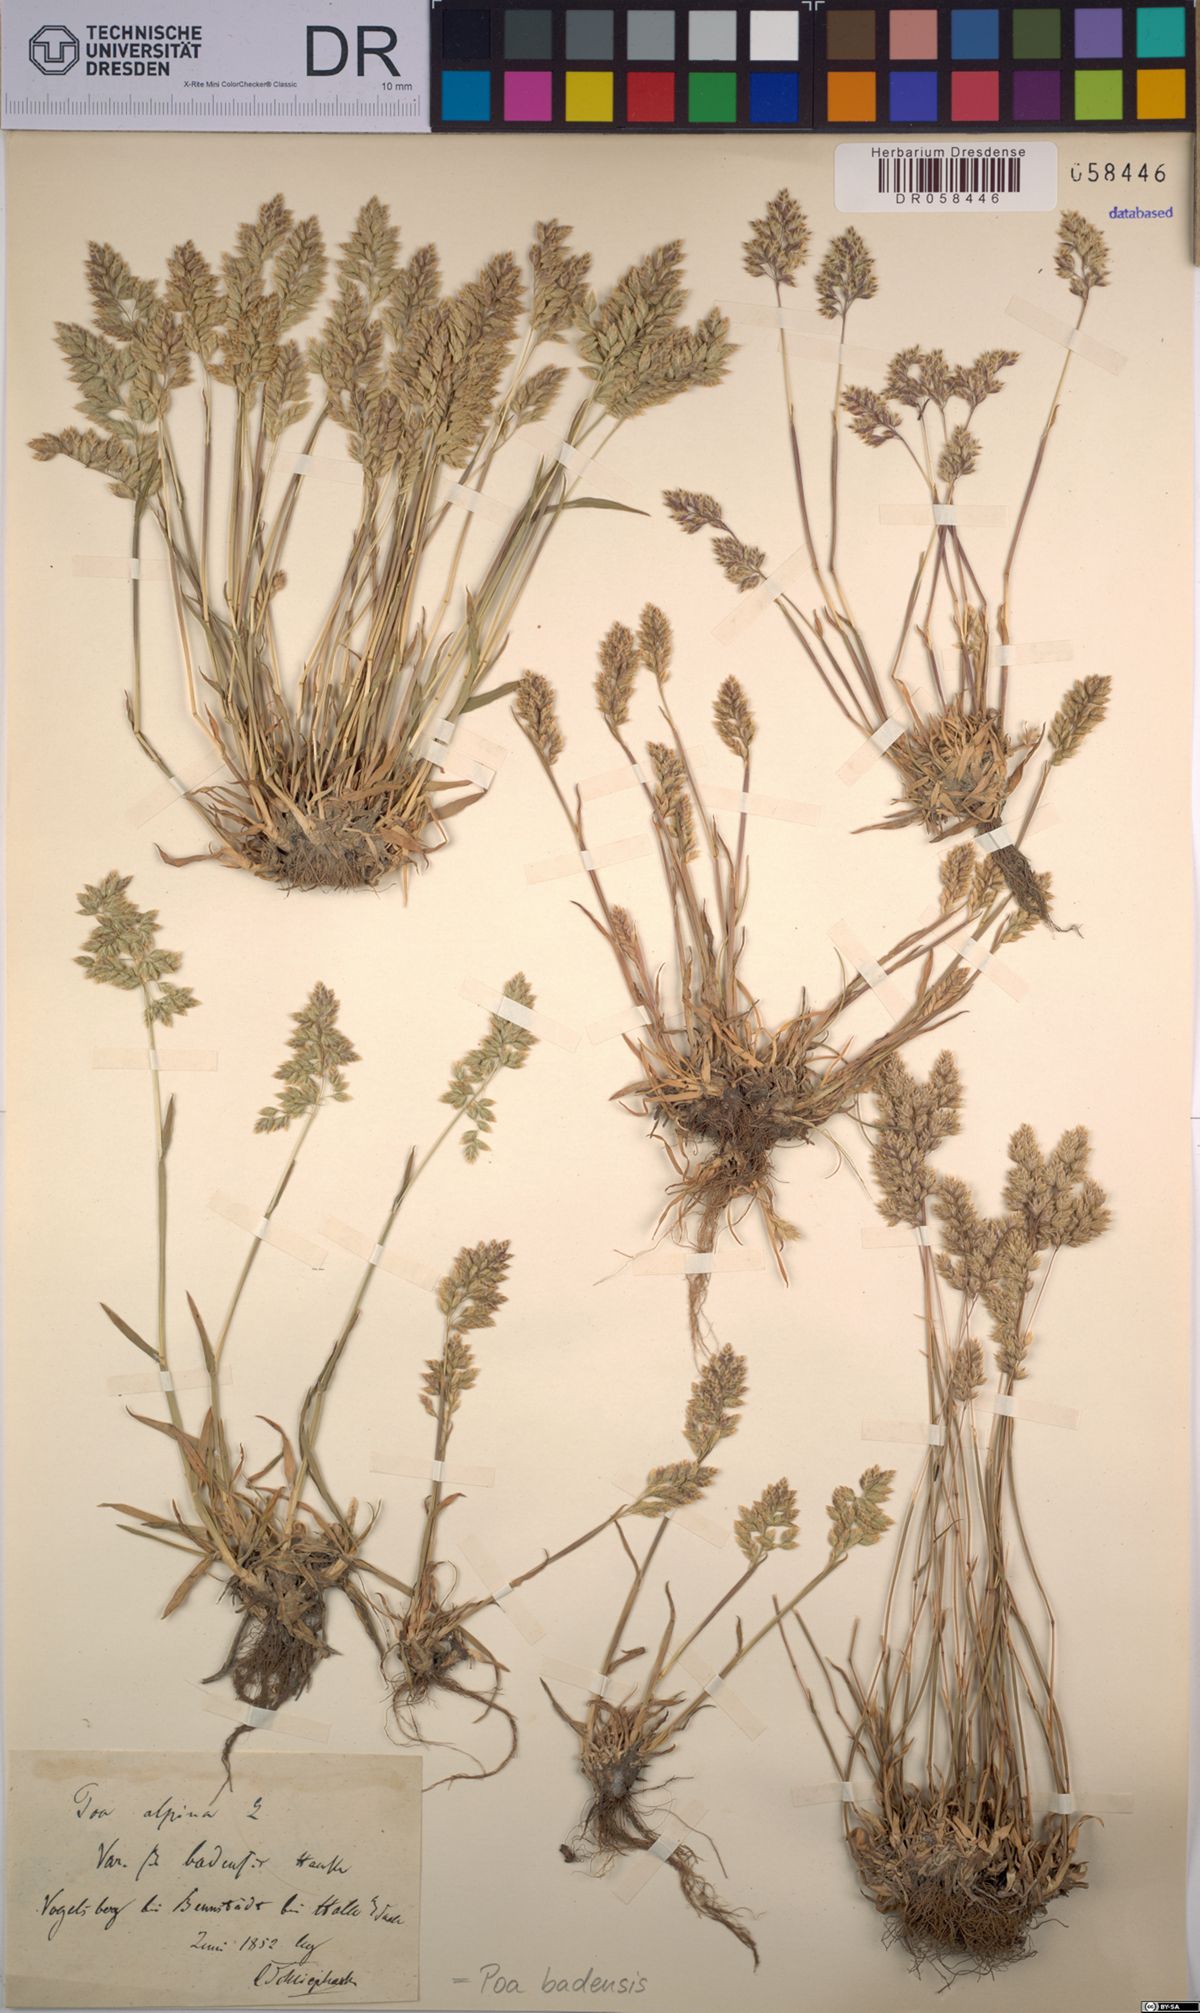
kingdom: Plantae
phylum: Tracheophyta
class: Liliopsida
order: Poales
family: Poaceae
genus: Poa
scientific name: Poa badensis
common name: Baden's bluegrass
